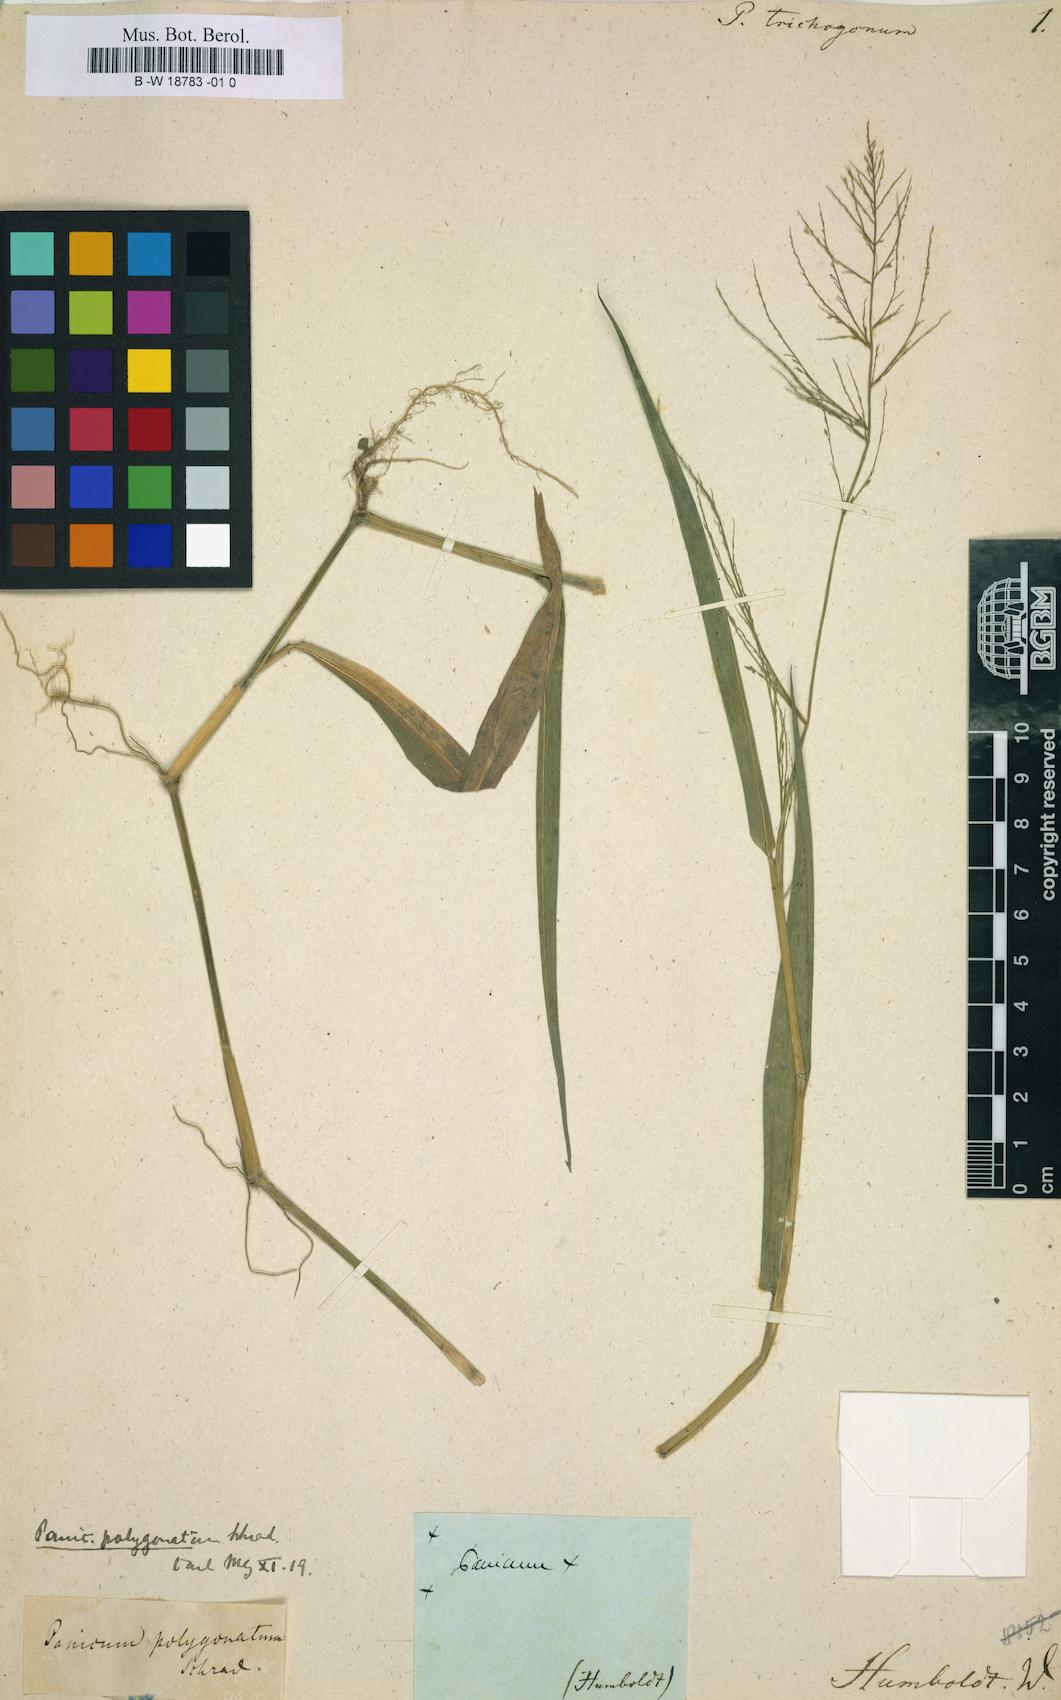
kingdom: Plantae
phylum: Tracheophyta
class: Liliopsida
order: Poales
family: Poaceae
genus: Rugoloa
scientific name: Rugoloa polygonata
